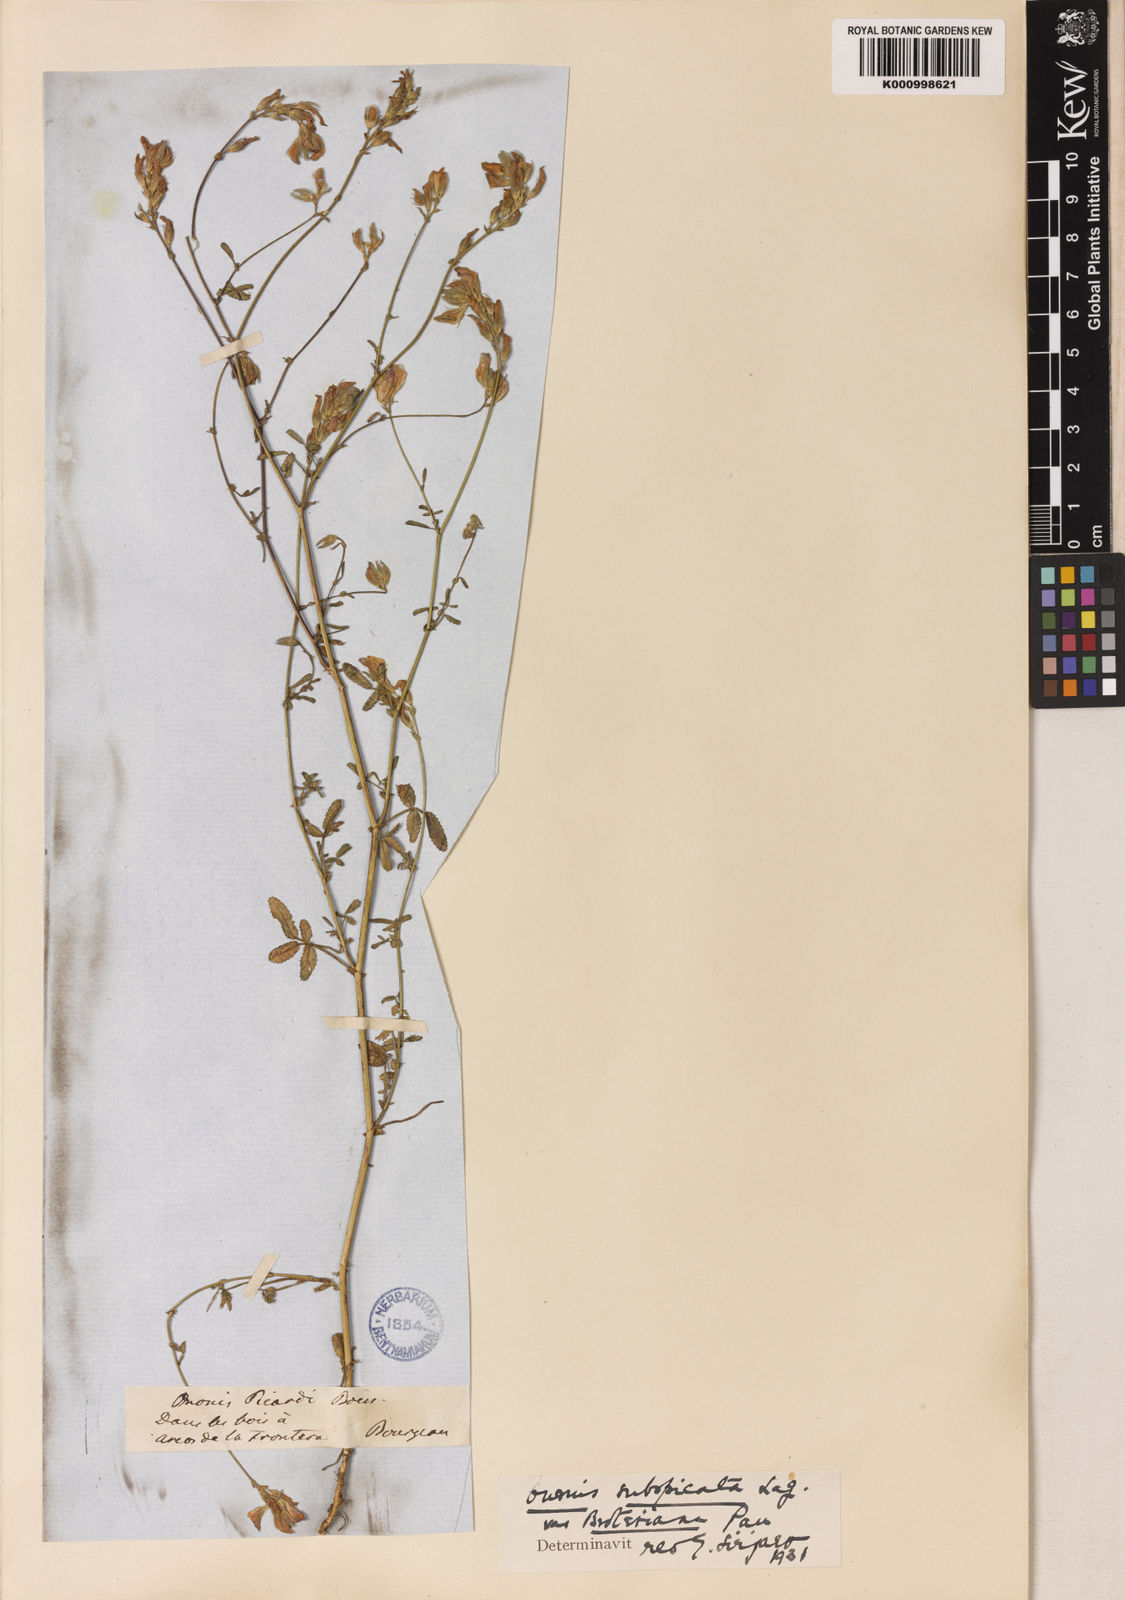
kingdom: Plantae
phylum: Tracheophyta
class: Magnoliopsida
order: Fabales
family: Fabaceae
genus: Ononis
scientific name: Ononis baetica
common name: Andalucian restharrow
